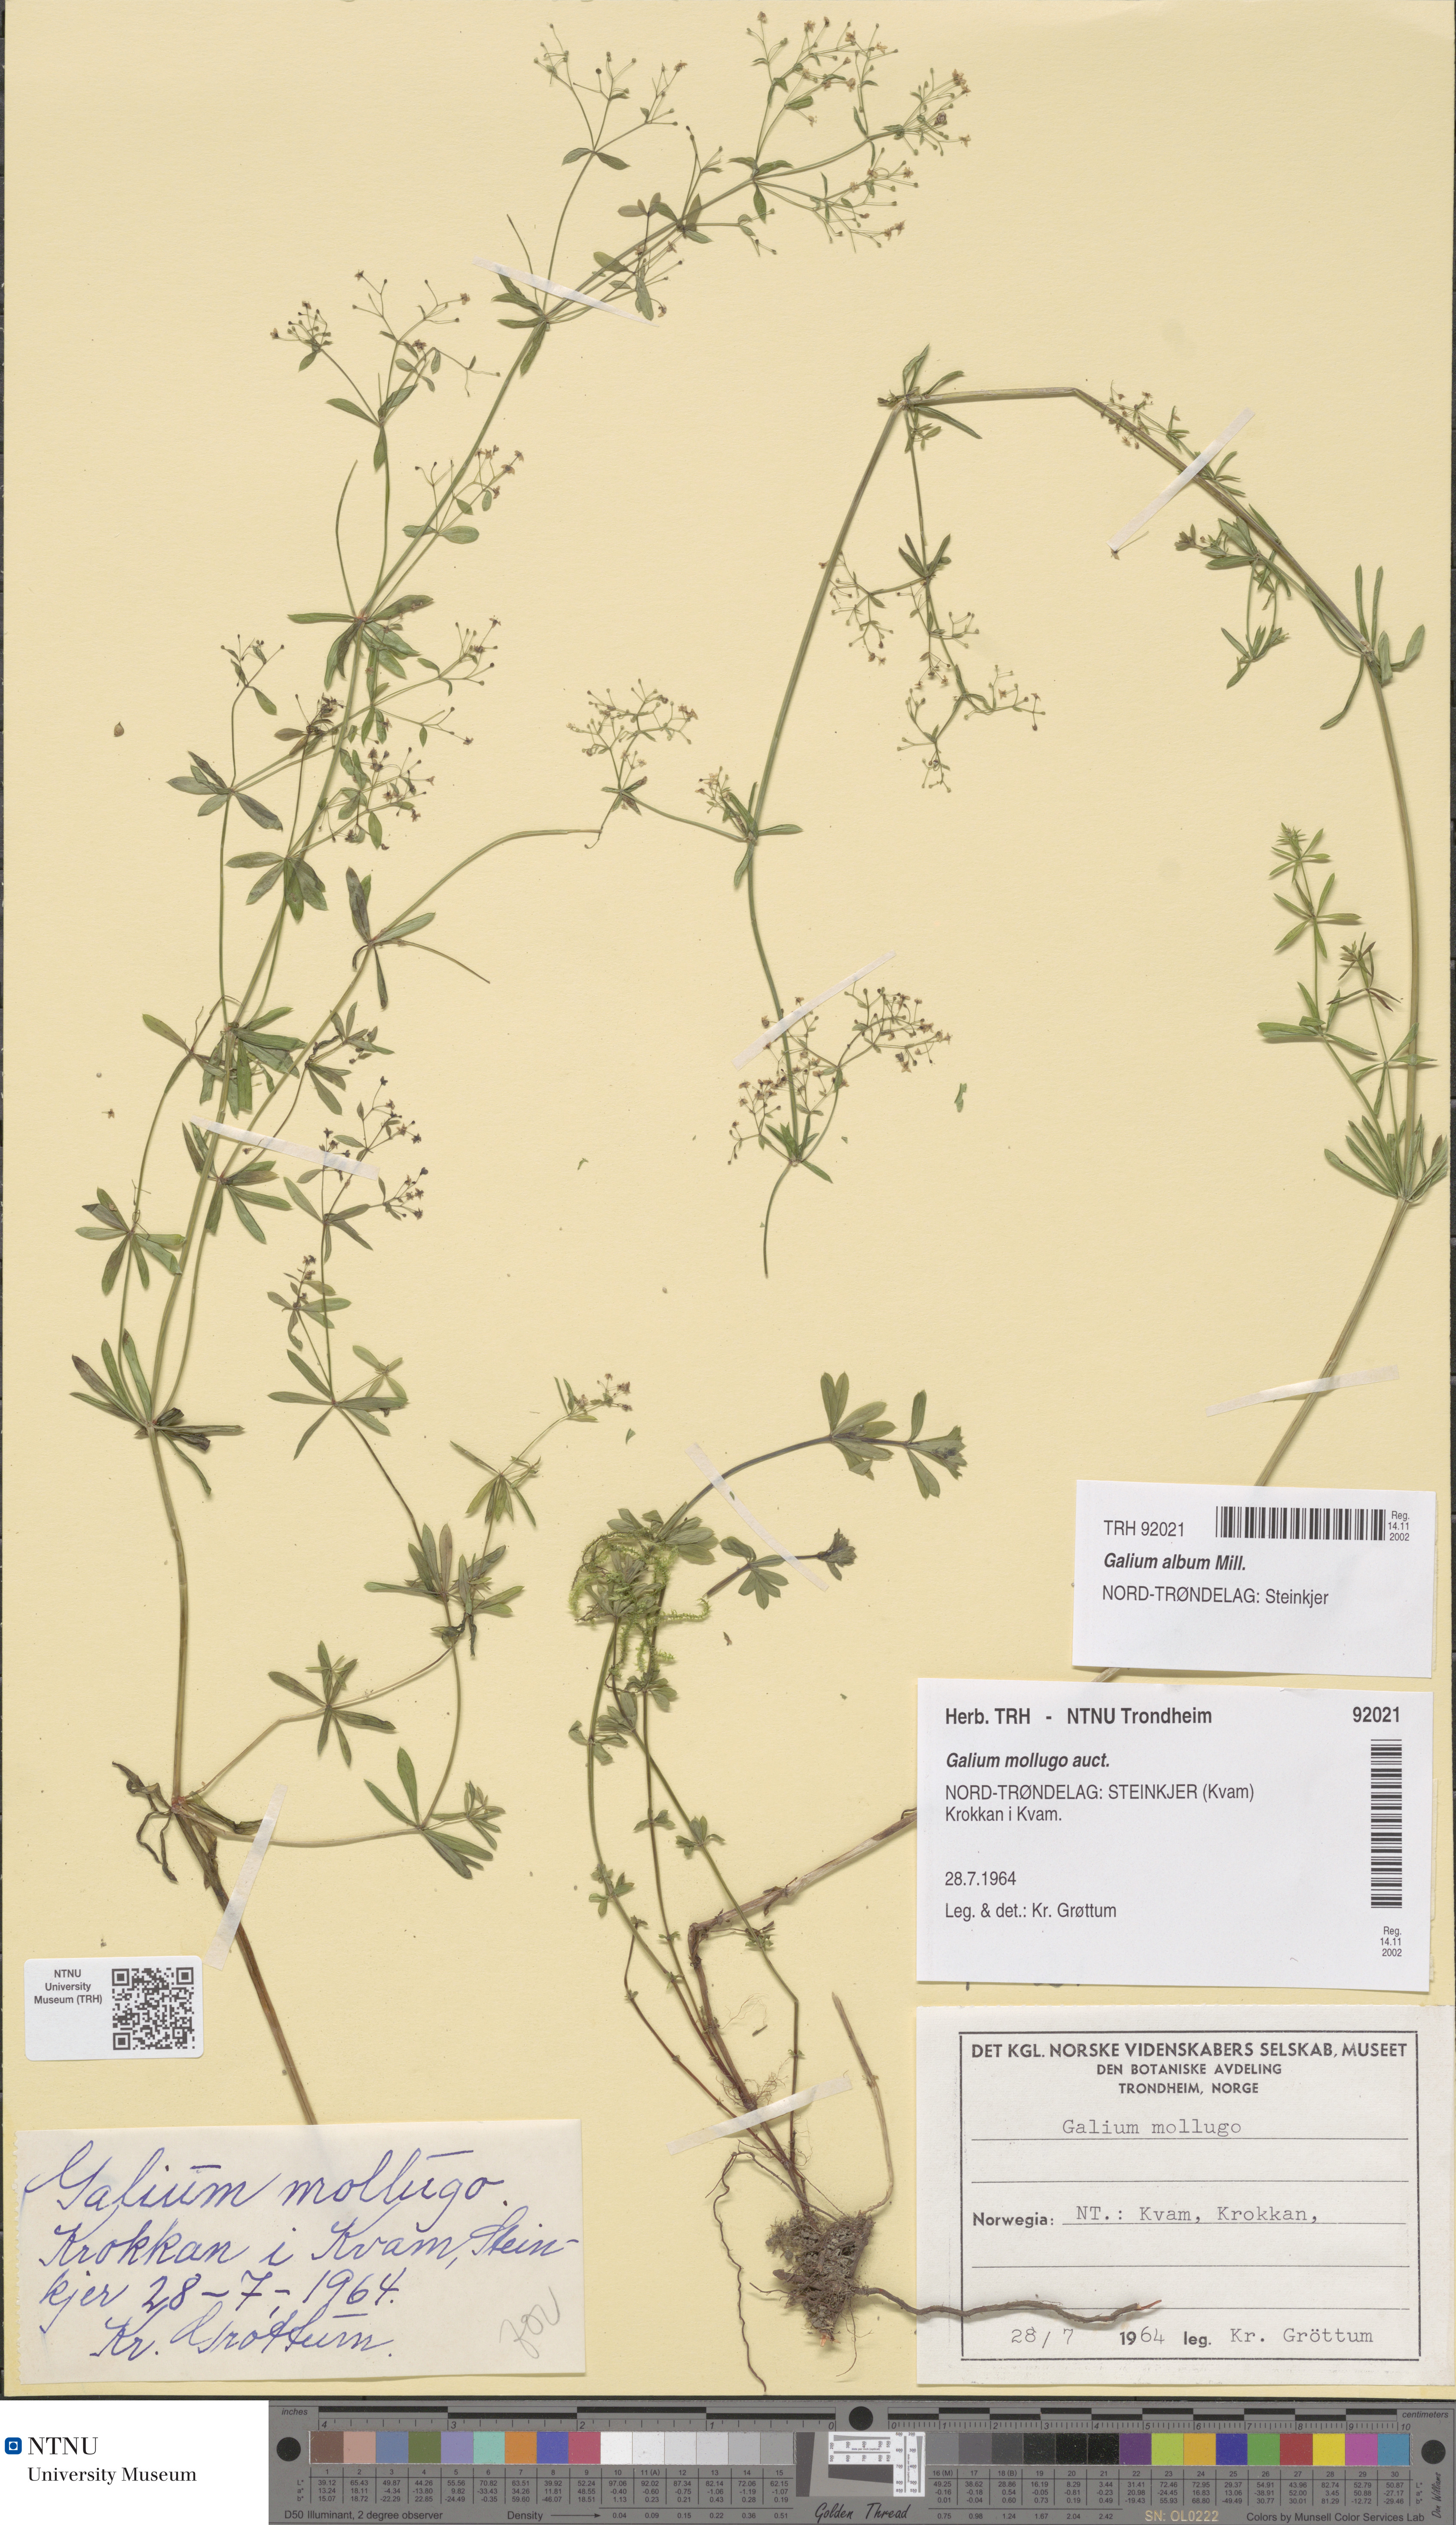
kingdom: Plantae
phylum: Tracheophyta
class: Magnoliopsida
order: Gentianales
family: Rubiaceae
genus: Galium
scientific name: Galium mollugo
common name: Hedge bedstraw
